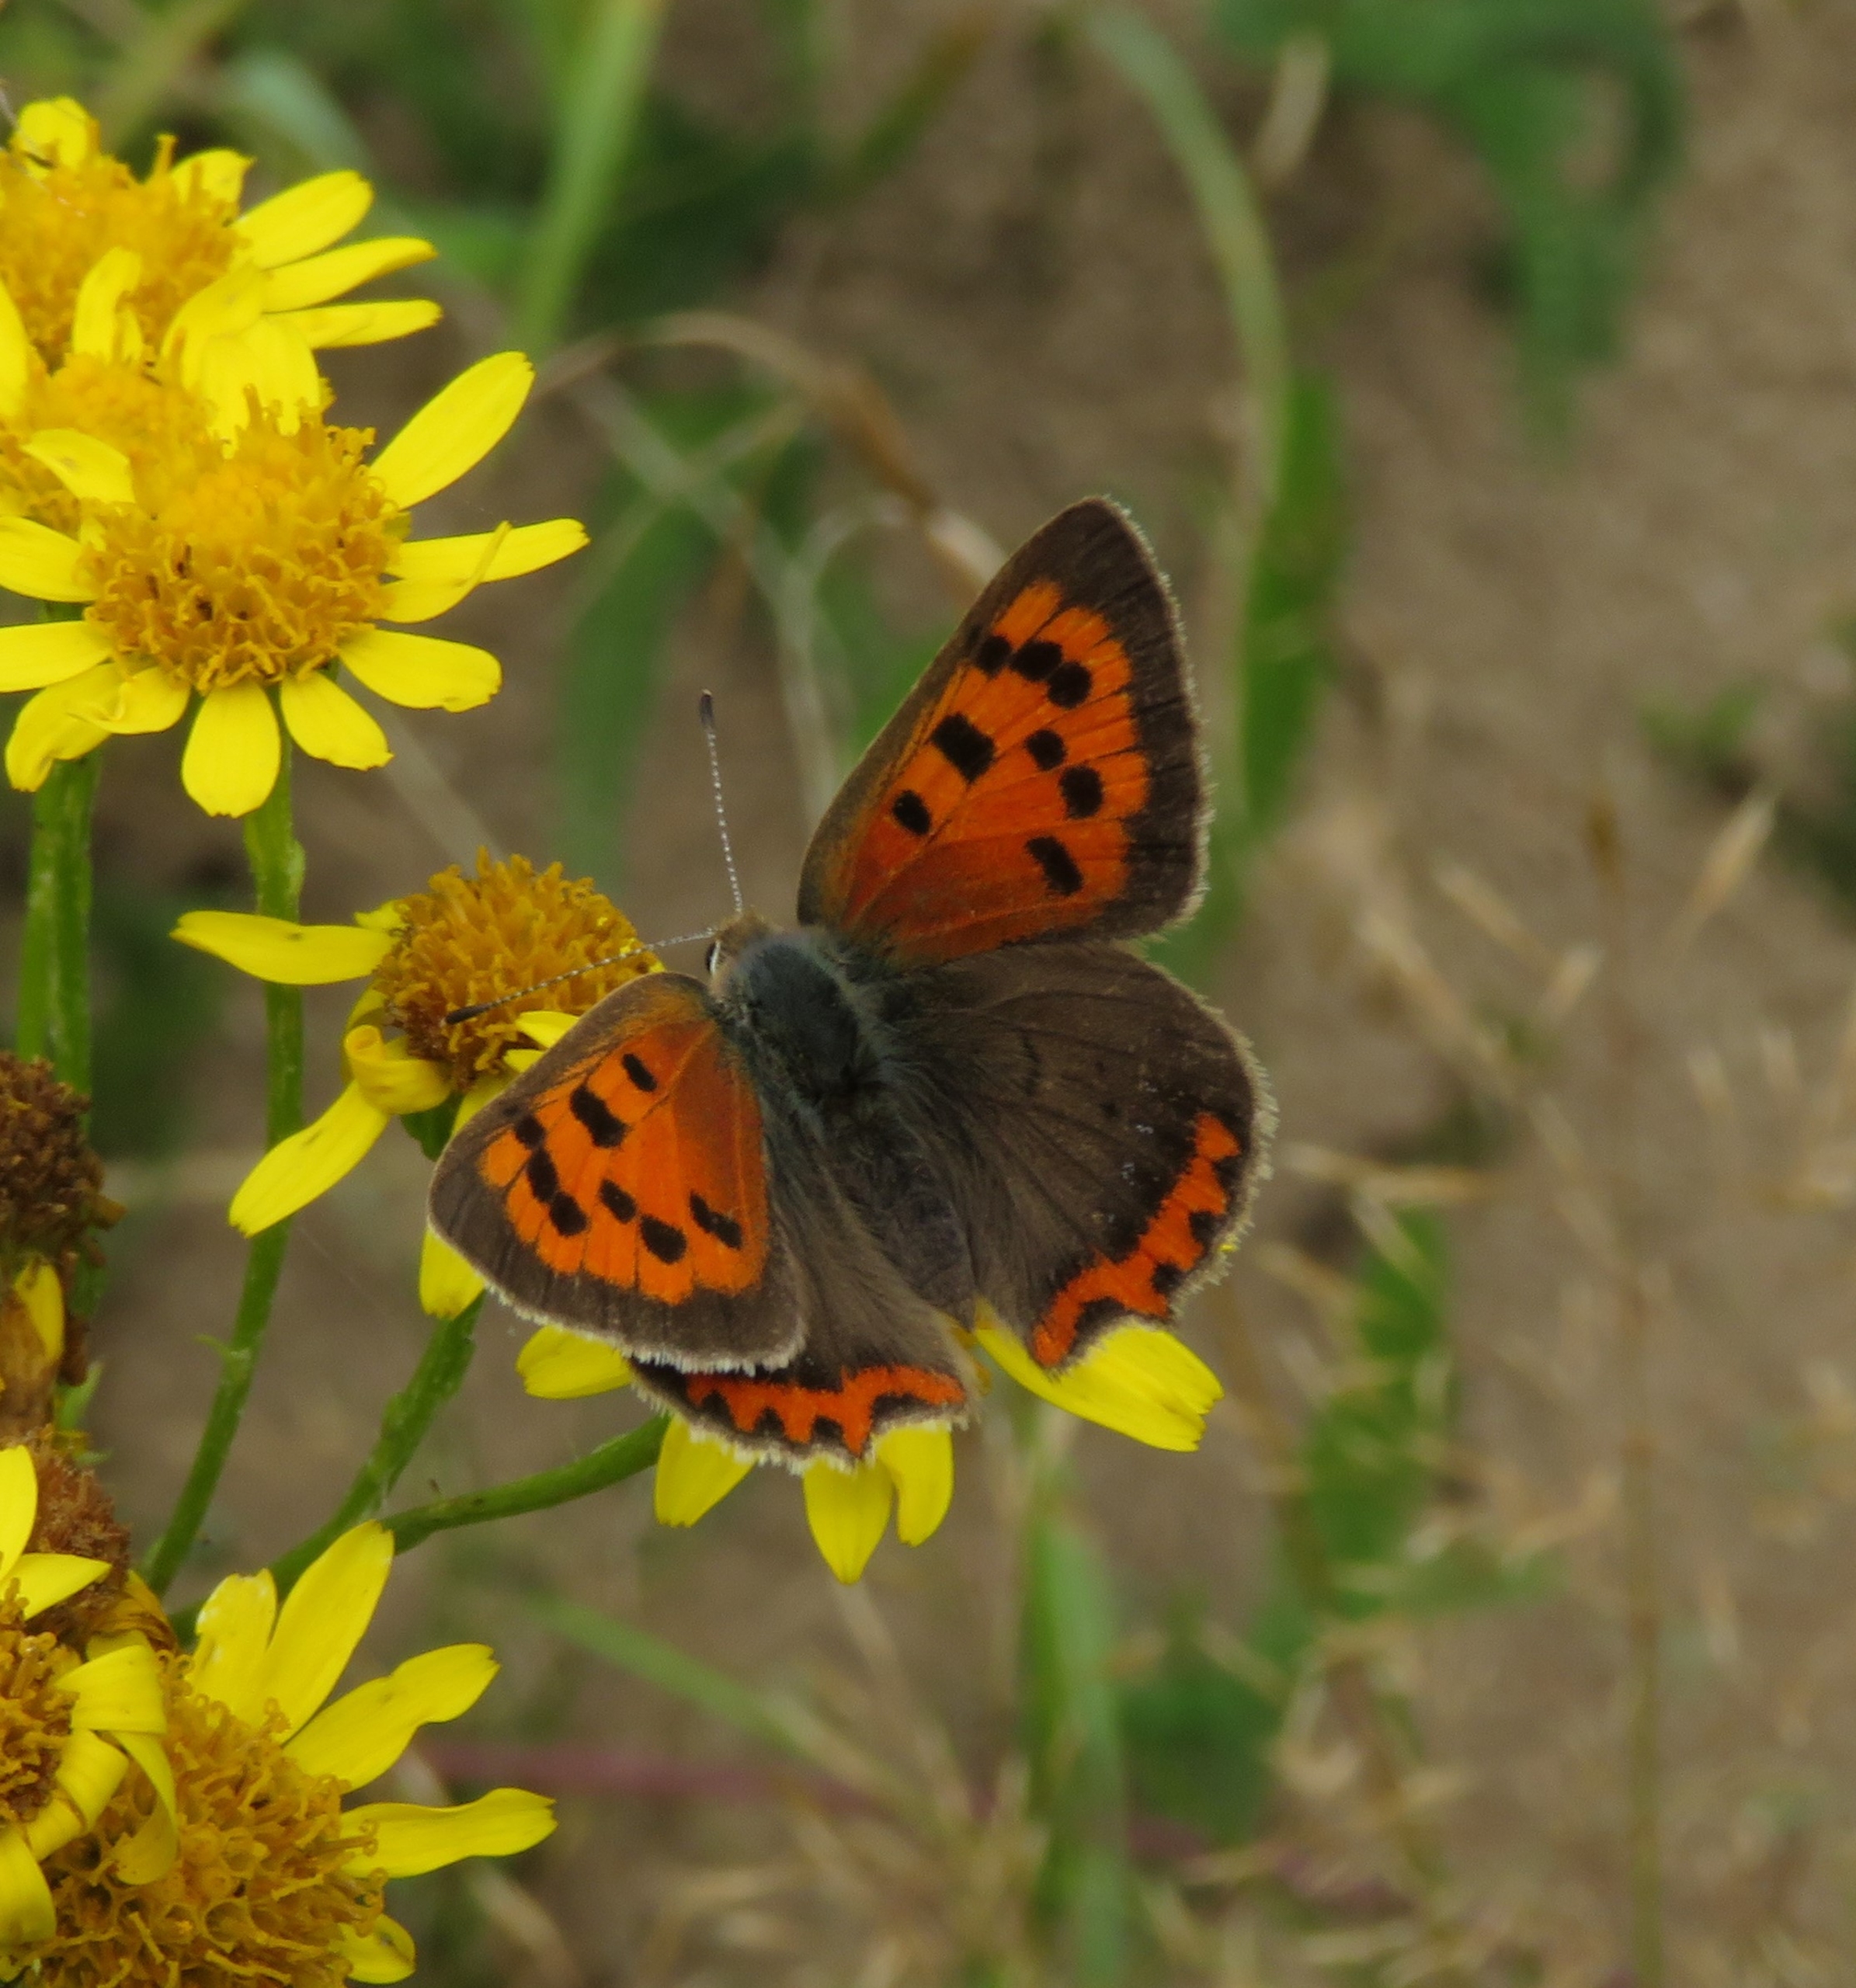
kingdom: Animalia
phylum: Arthropoda
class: Insecta
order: Lepidoptera
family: Lycaenidae
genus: Lycaena
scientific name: Lycaena phlaeas
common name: Lille ildfugl
